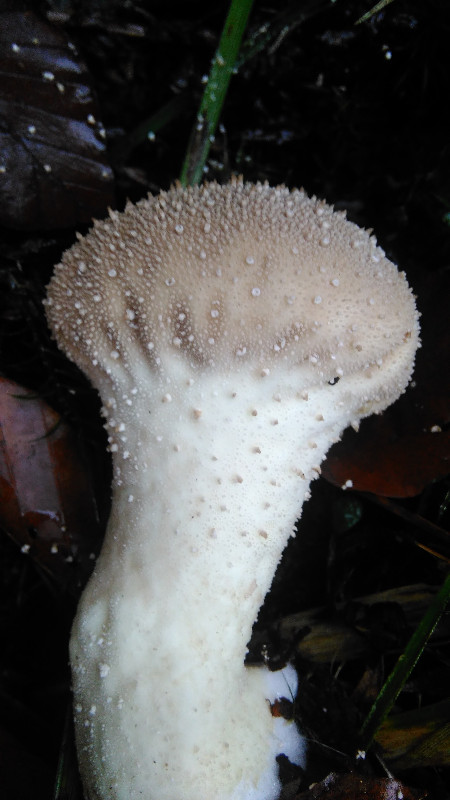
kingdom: Fungi
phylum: Basidiomycota
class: Agaricomycetes
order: Agaricales
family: Lycoperdaceae
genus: Lycoperdon
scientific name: Lycoperdon perlatum
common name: krystal-støvbold
